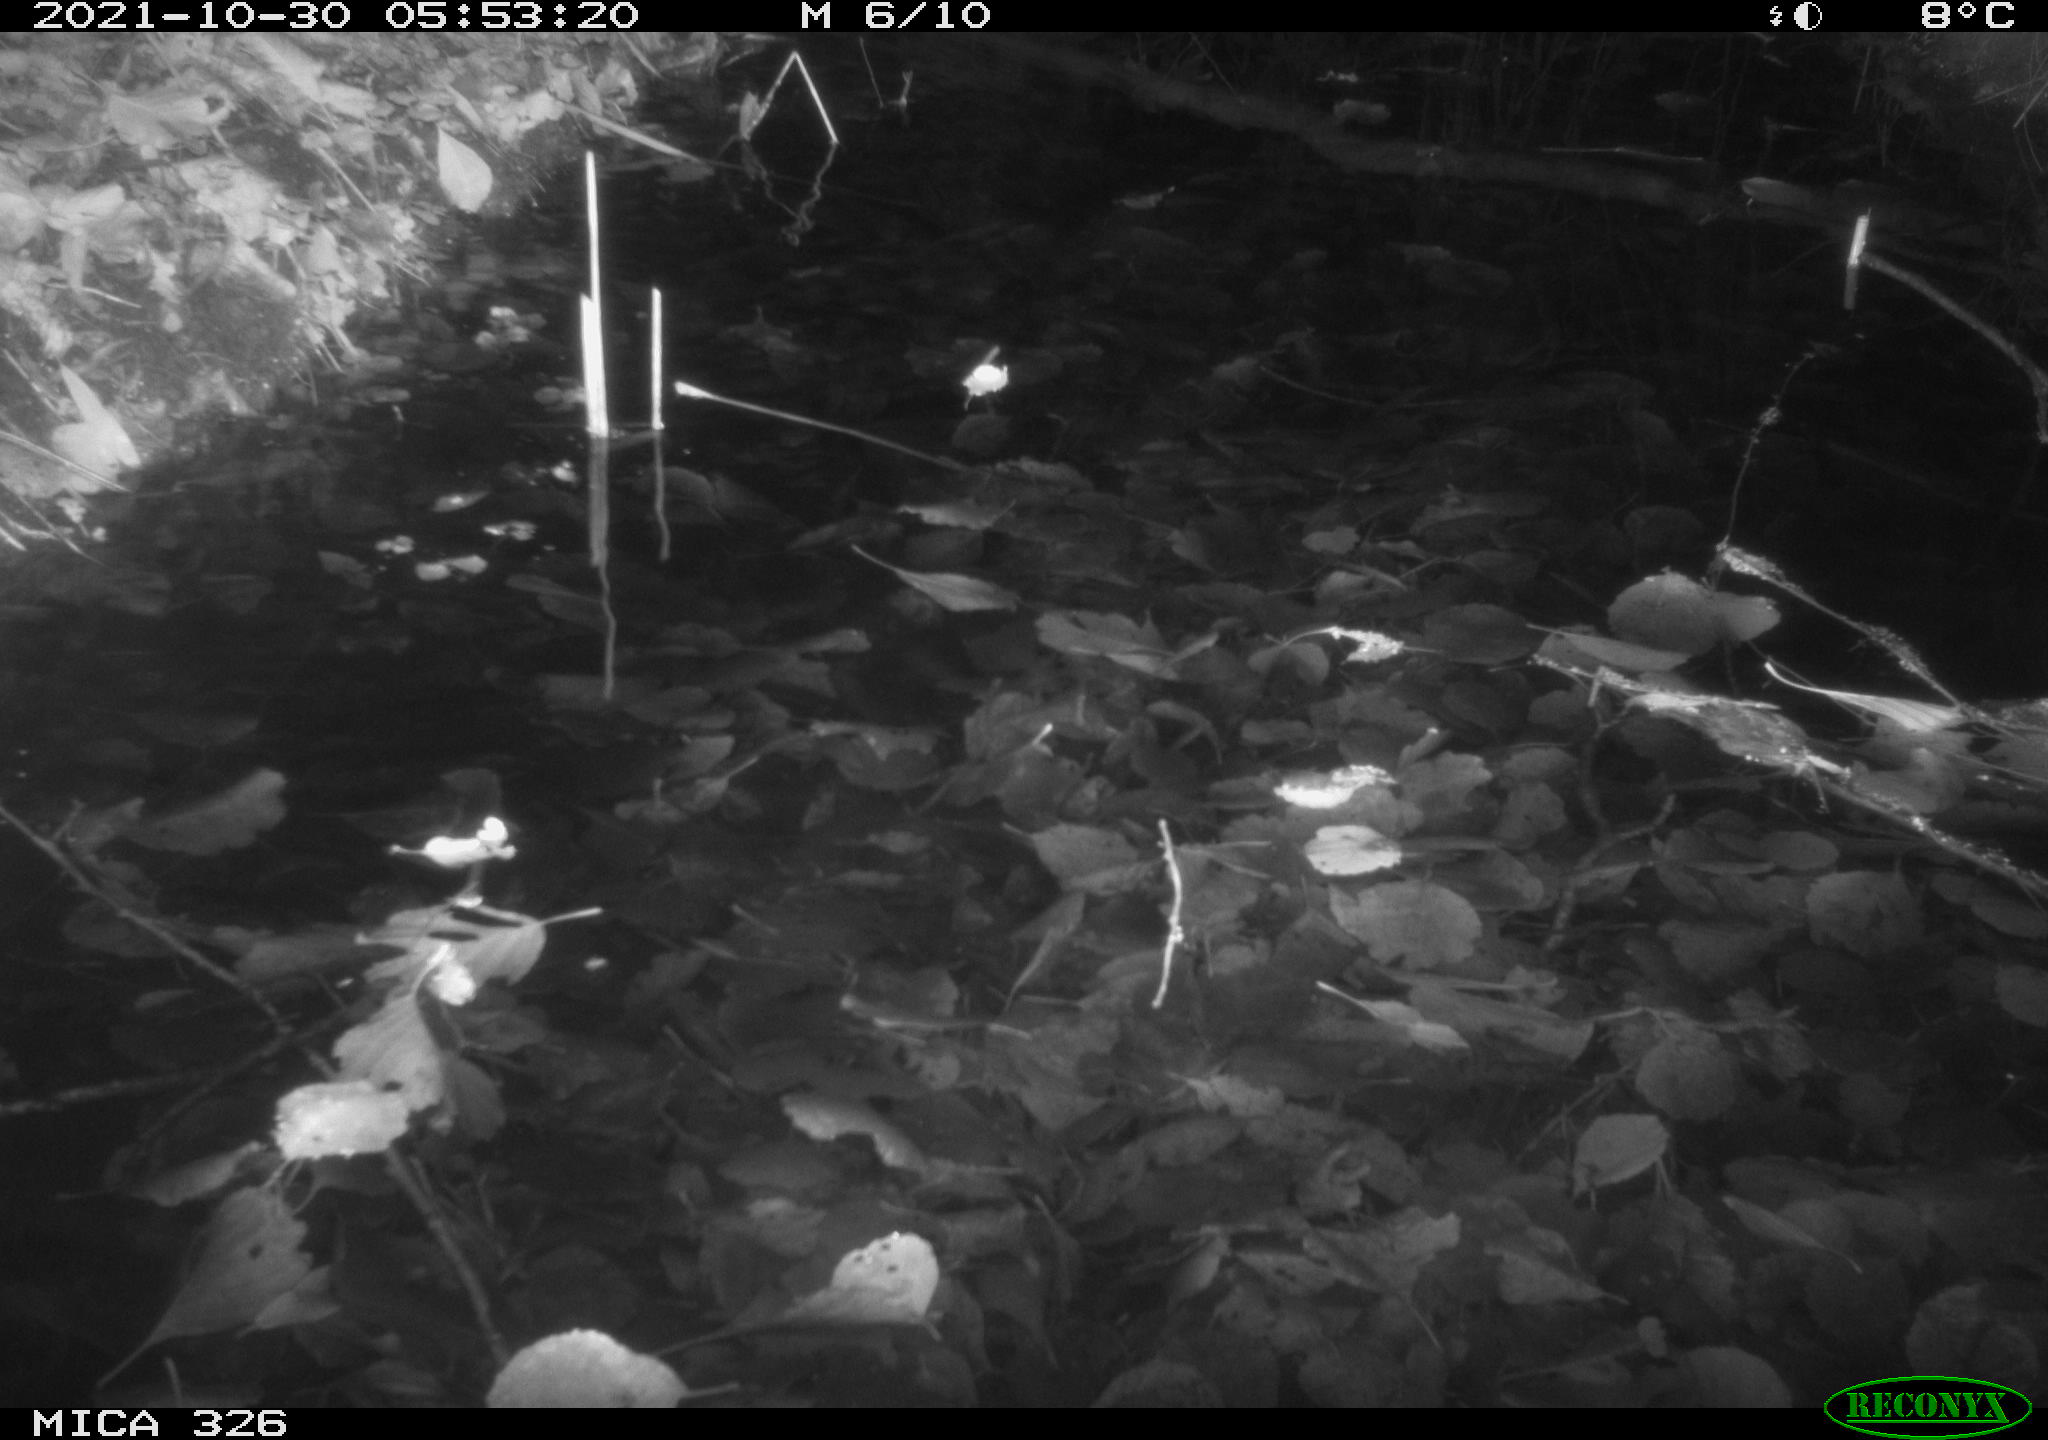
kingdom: Animalia
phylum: Chordata
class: Mammalia
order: Rodentia
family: Muridae
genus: Rattus
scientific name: Rattus norvegicus
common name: Brown rat
